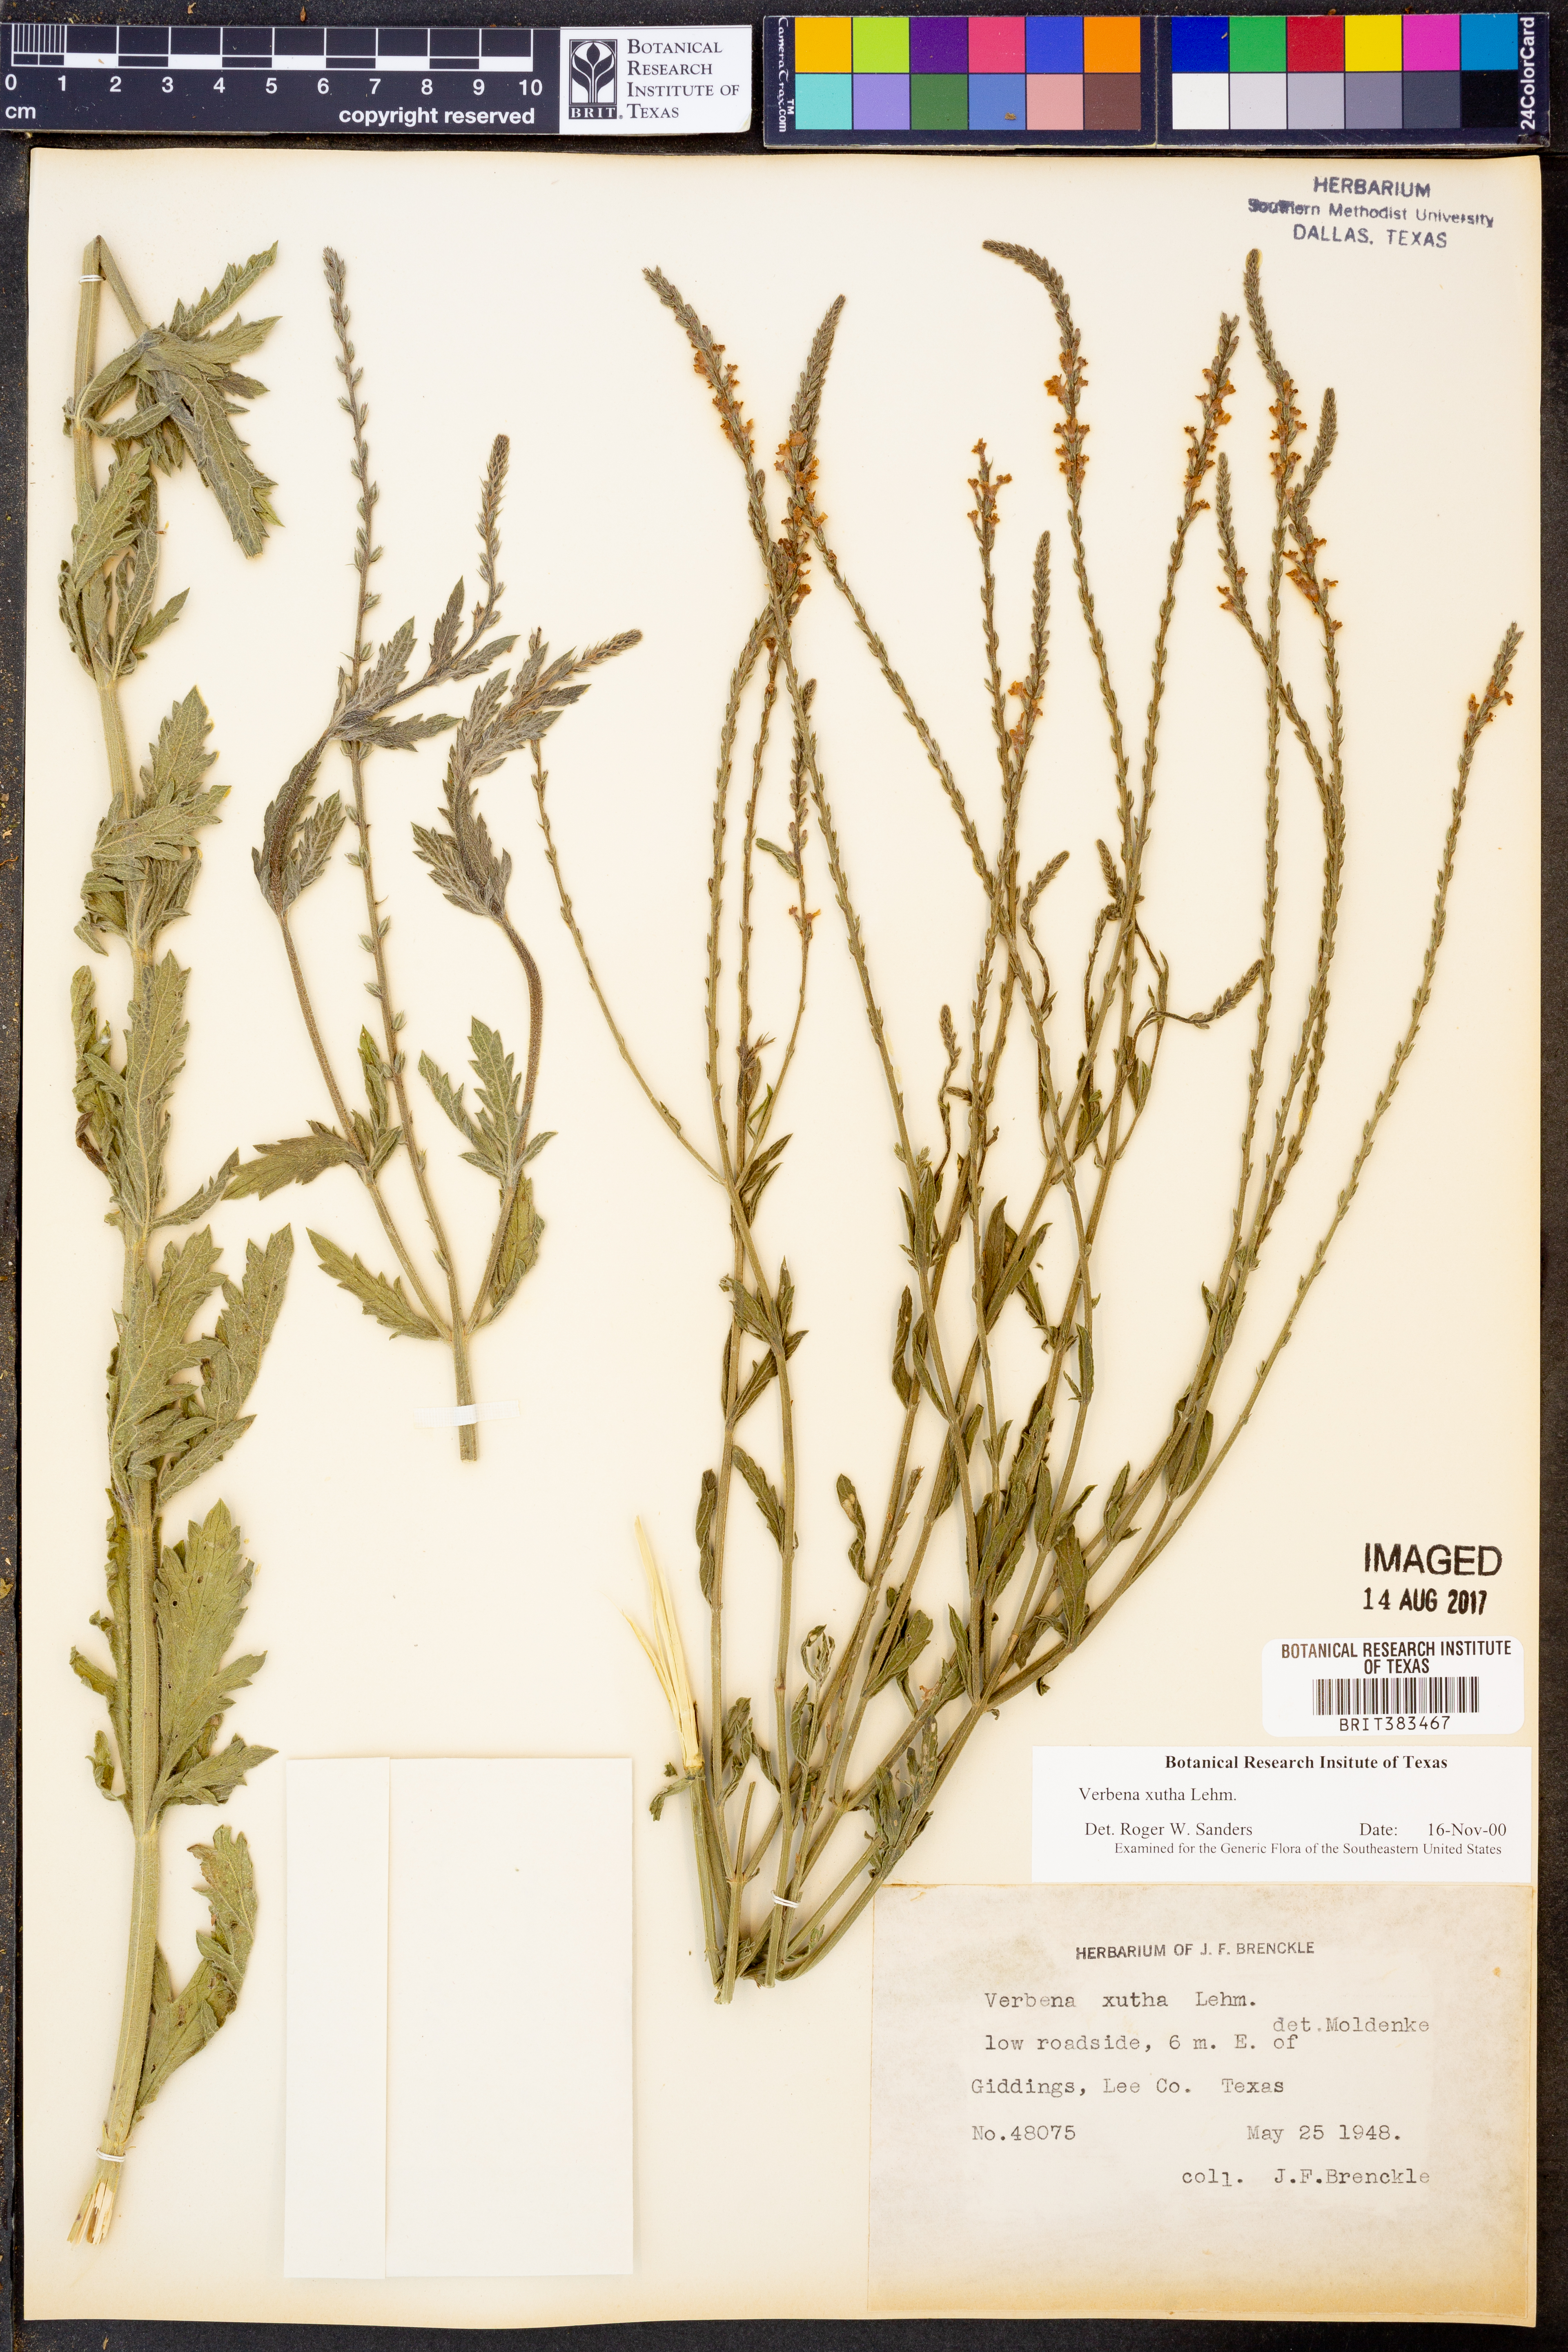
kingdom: Plantae
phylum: Tracheophyta
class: Magnoliopsida
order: Lamiales
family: Verbenaceae
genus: Verbena
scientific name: Verbena xutha
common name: Gulf vervain
